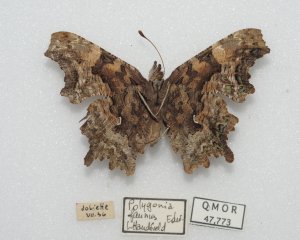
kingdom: Animalia
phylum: Arthropoda
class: Insecta
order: Lepidoptera
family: Nymphalidae
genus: Polygonia
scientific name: Polygonia faunus
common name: Green Comma
